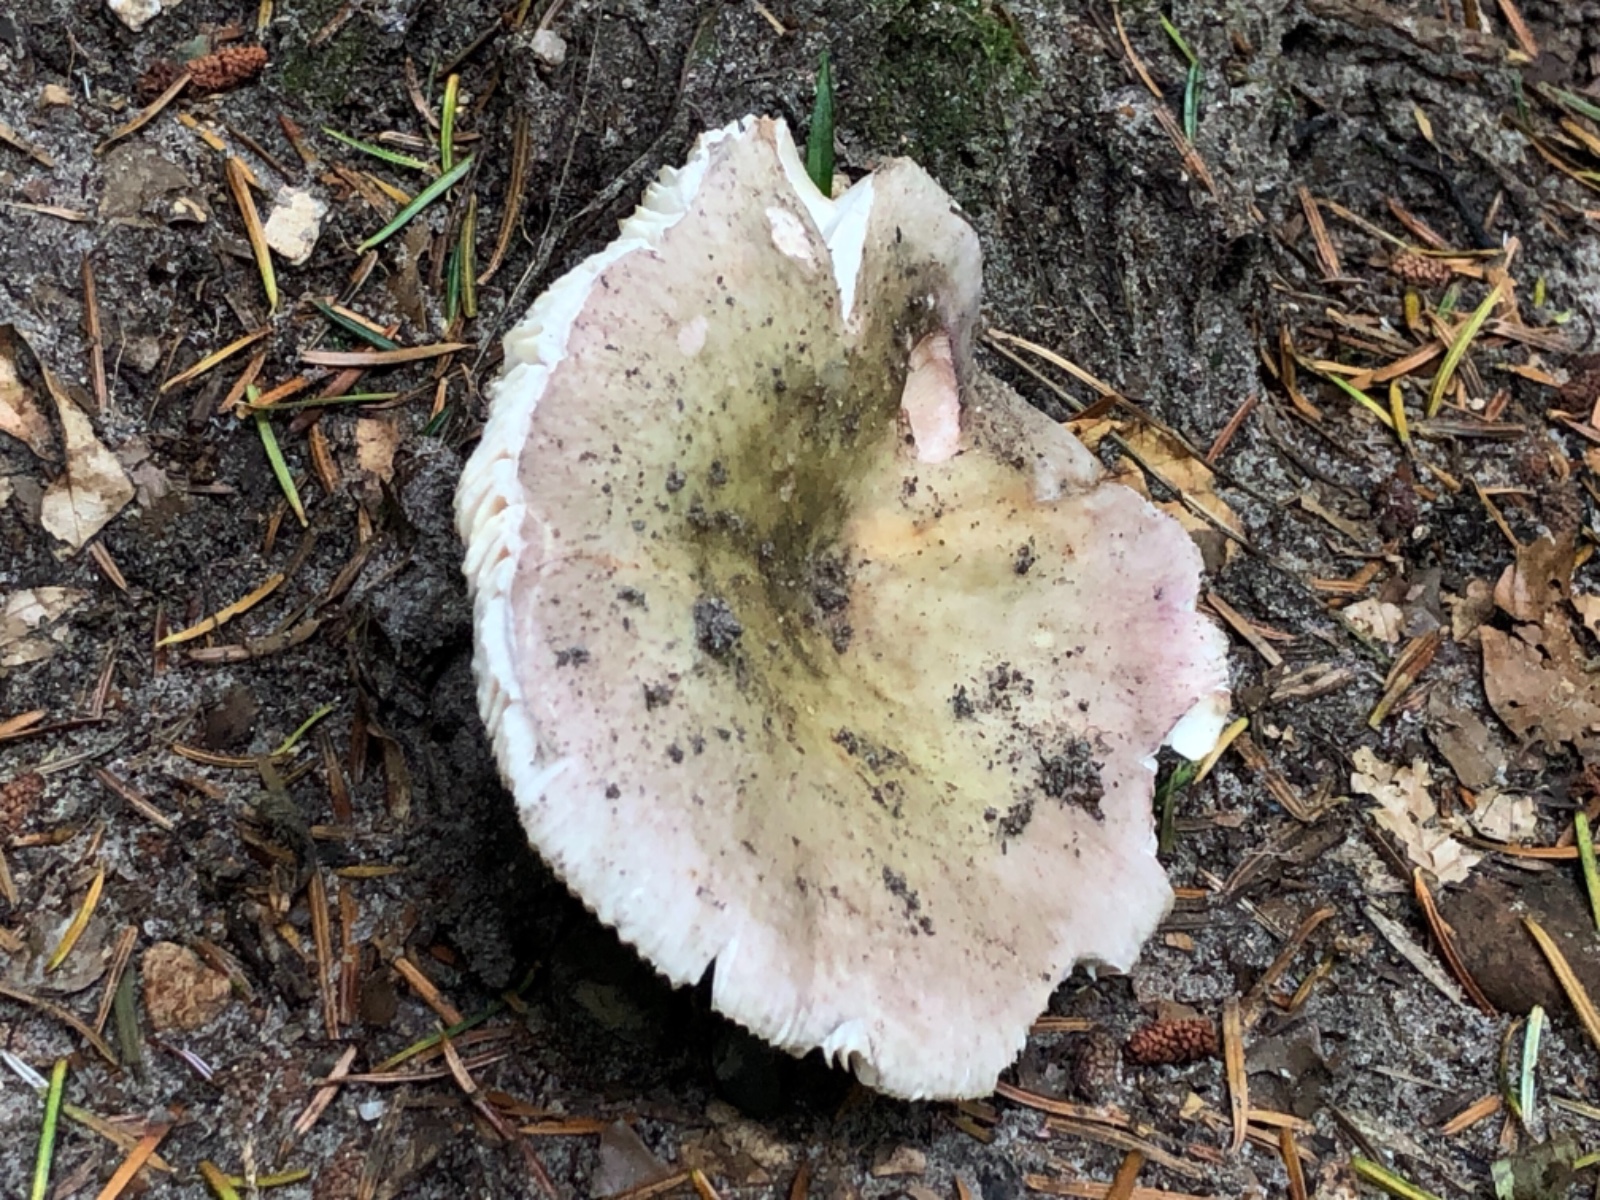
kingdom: Fungi
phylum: Basidiomycota
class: Agaricomycetes
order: Russulales
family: Russulaceae
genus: Russula
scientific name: Russula ionochlora
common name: violetgrøn skørhat
